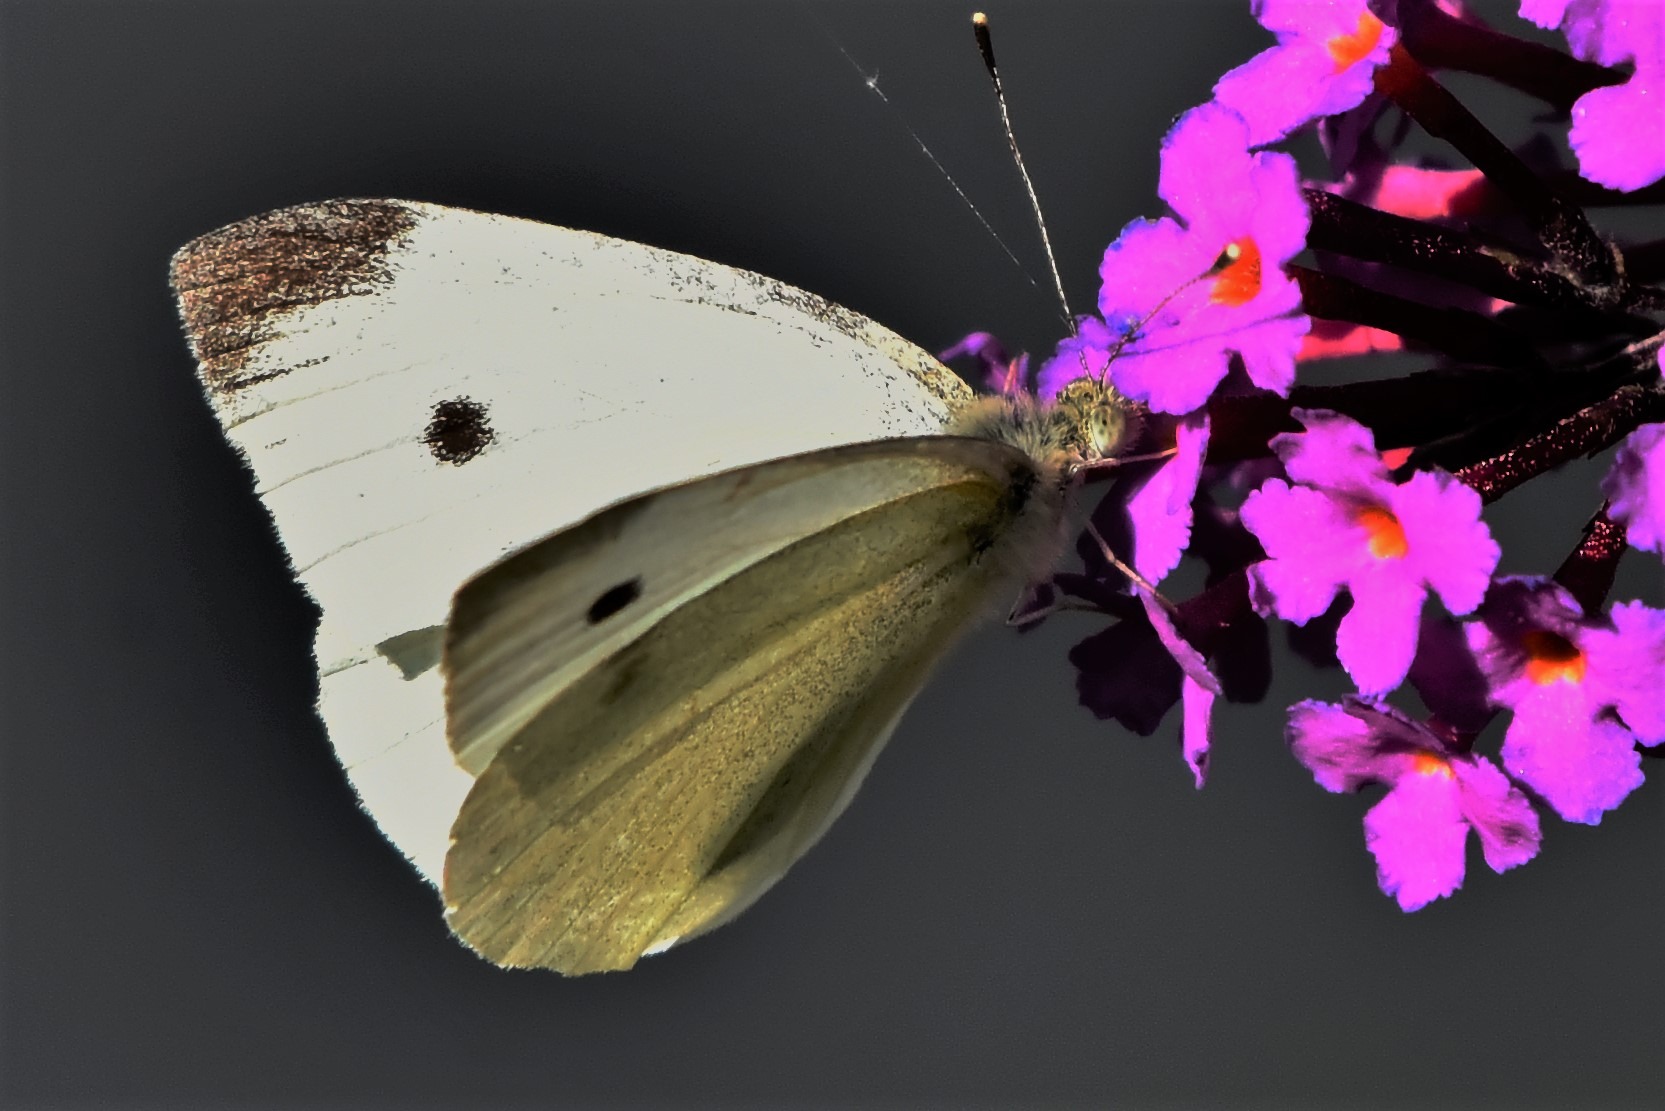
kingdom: Animalia
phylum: Arthropoda
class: Insecta
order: Lepidoptera
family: Pieridae
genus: Pieris
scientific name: Pieris rapae
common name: Lille kålsommerfugl
